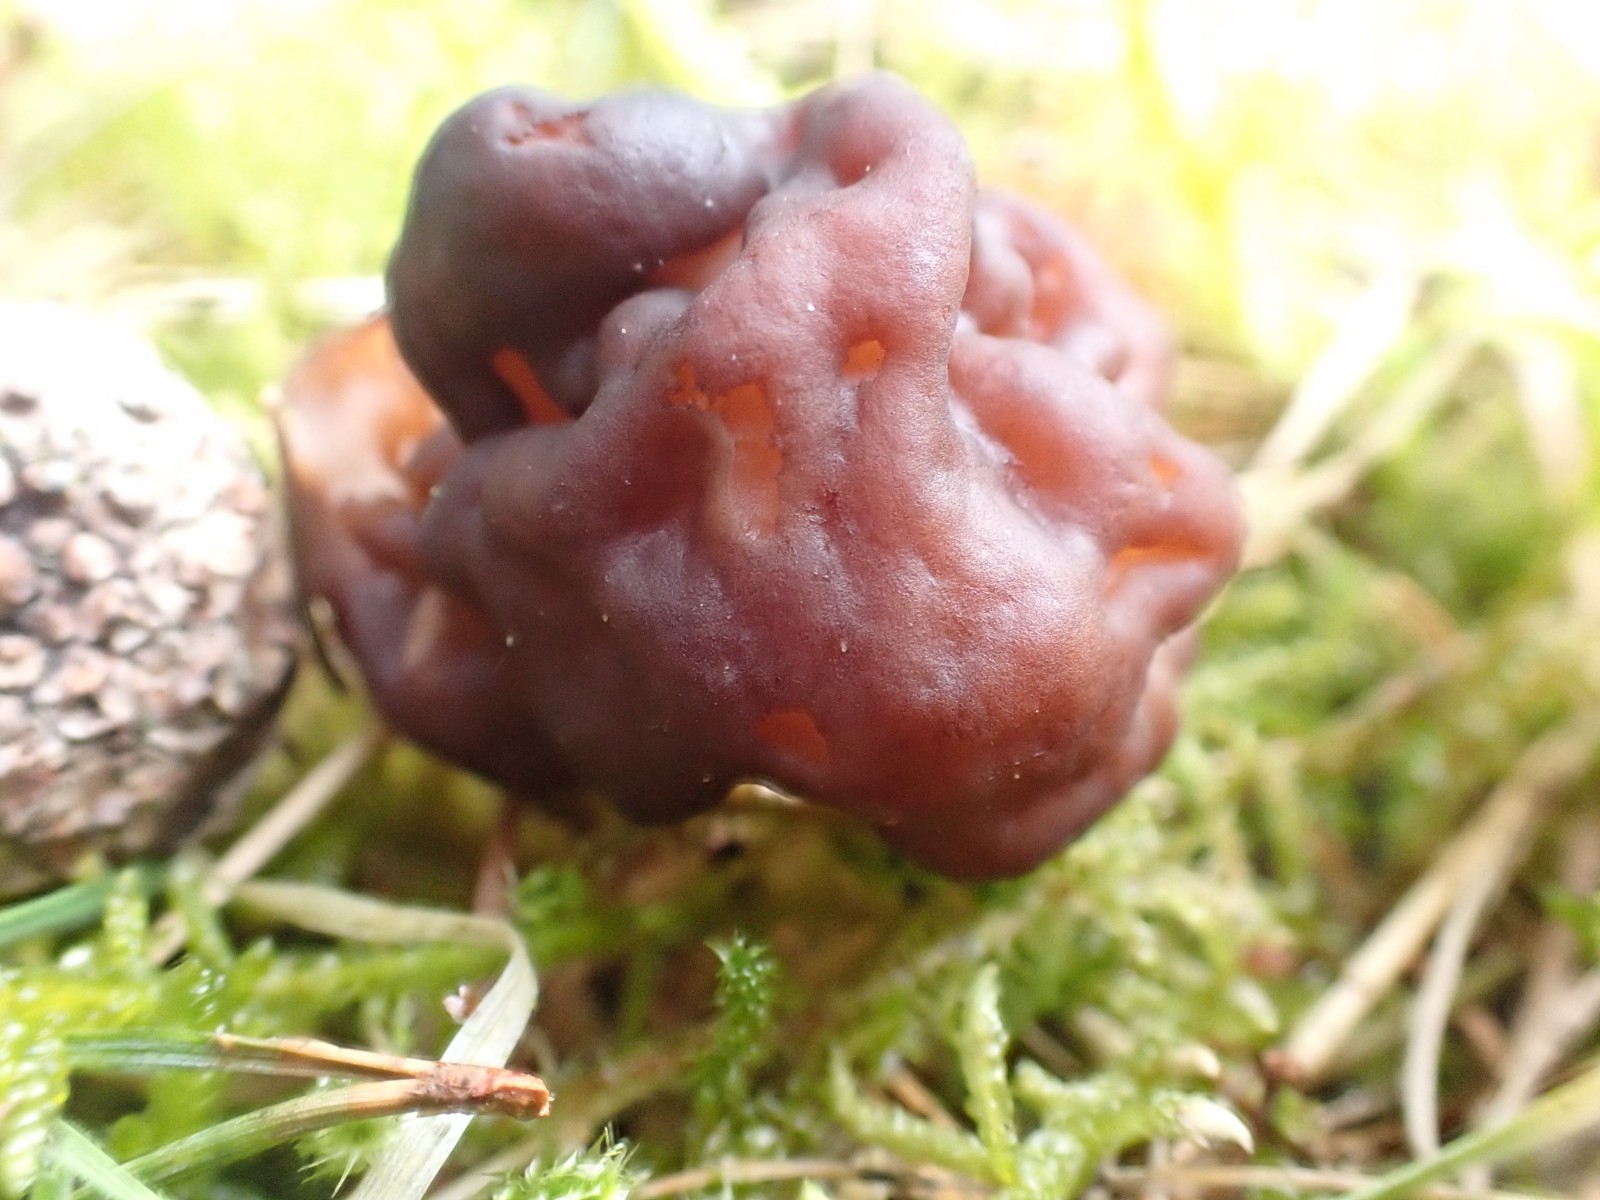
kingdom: Fungi
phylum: Ascomycota
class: Pezizomycetes
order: Pezizales
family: Discinaceae
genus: Gyromitra
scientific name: Gyromitra esculenta
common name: ægte stenmorkel
